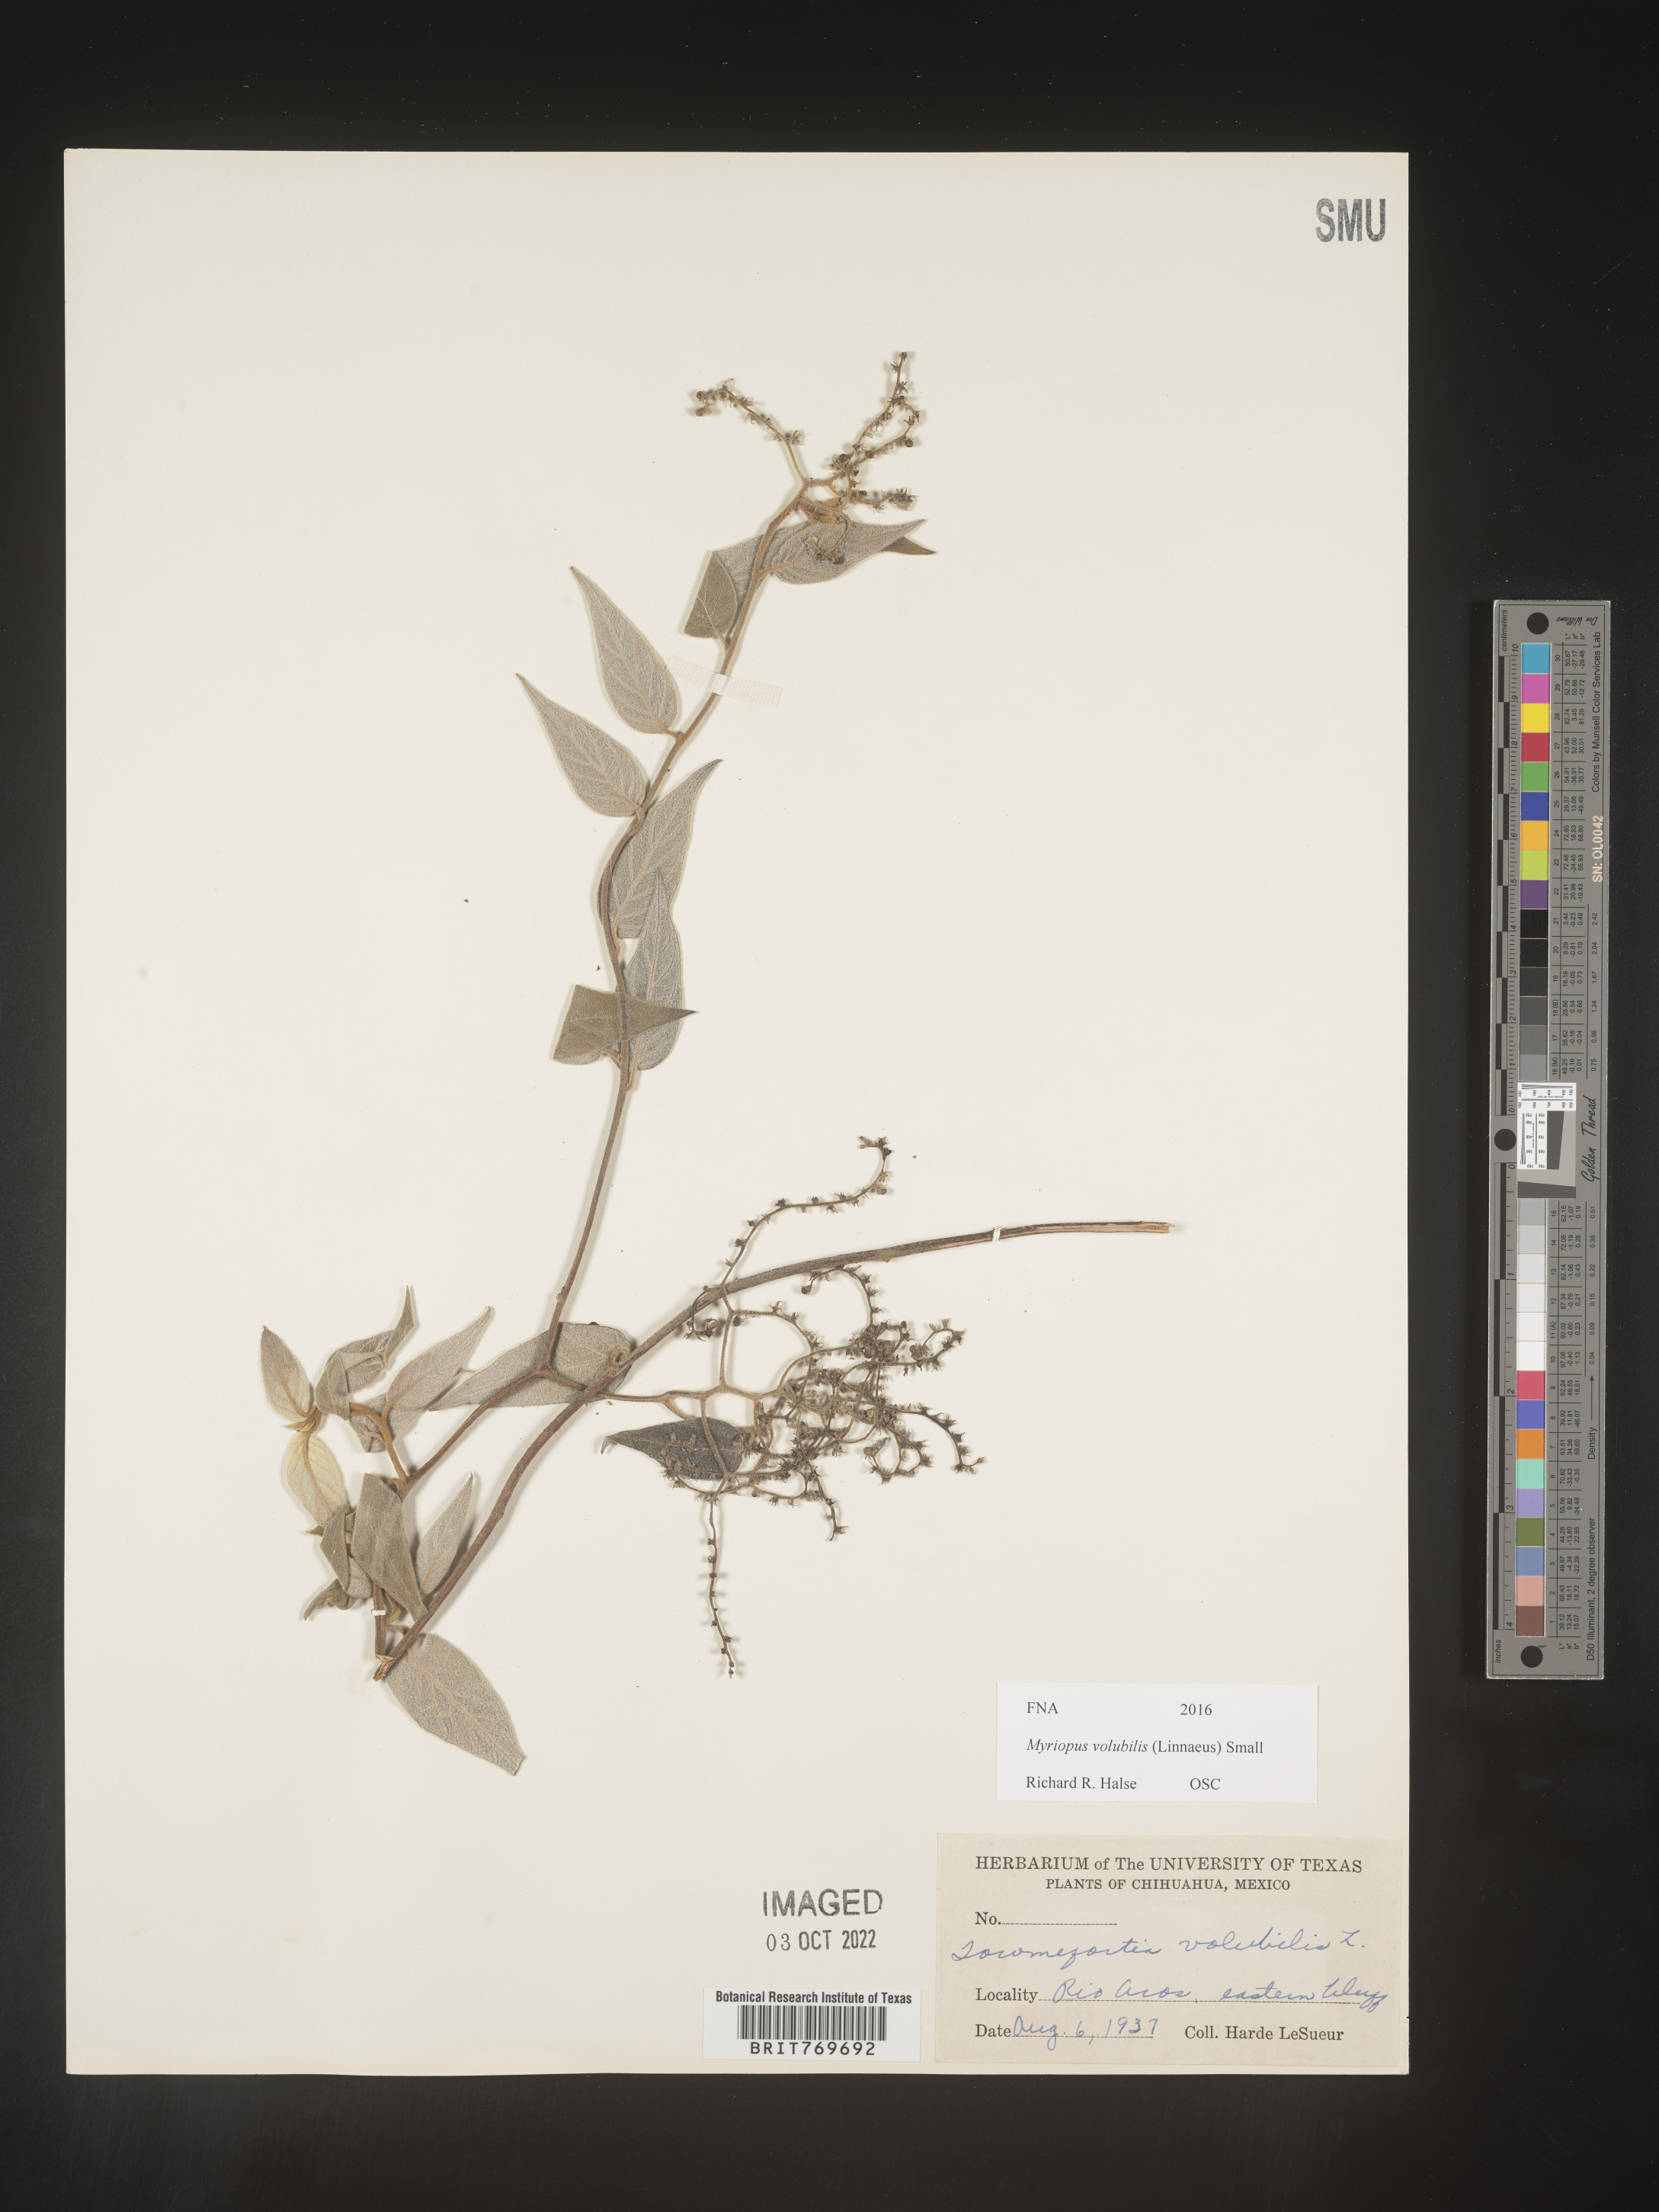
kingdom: Plantae
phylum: Tracheophyta
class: Magnoliopsida
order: Boraginales
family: Heliotropiaceae
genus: Myriopus
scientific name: Myriopus
